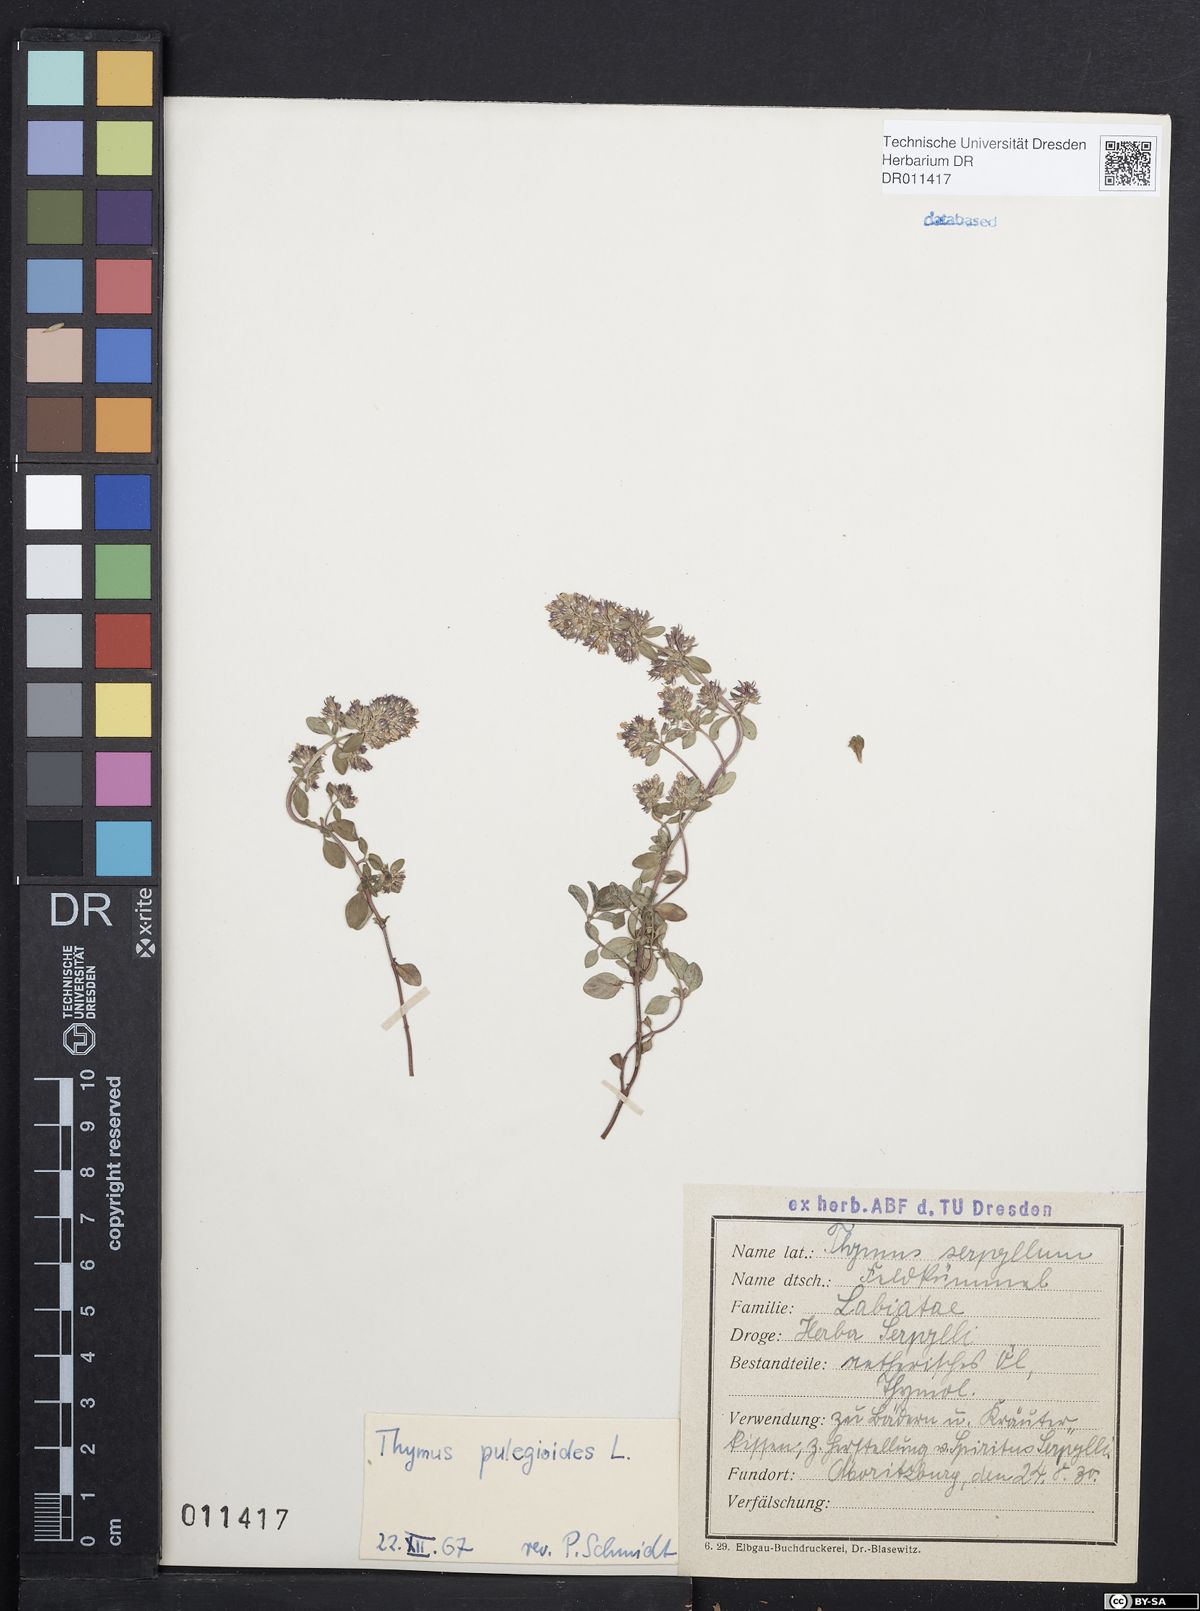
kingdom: Plantae
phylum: Tracheophyta
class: Magnoliopsida
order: Lamiales
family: Lamiaceae
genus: Thymus
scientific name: Thymus pulegioides
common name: Large thyme
